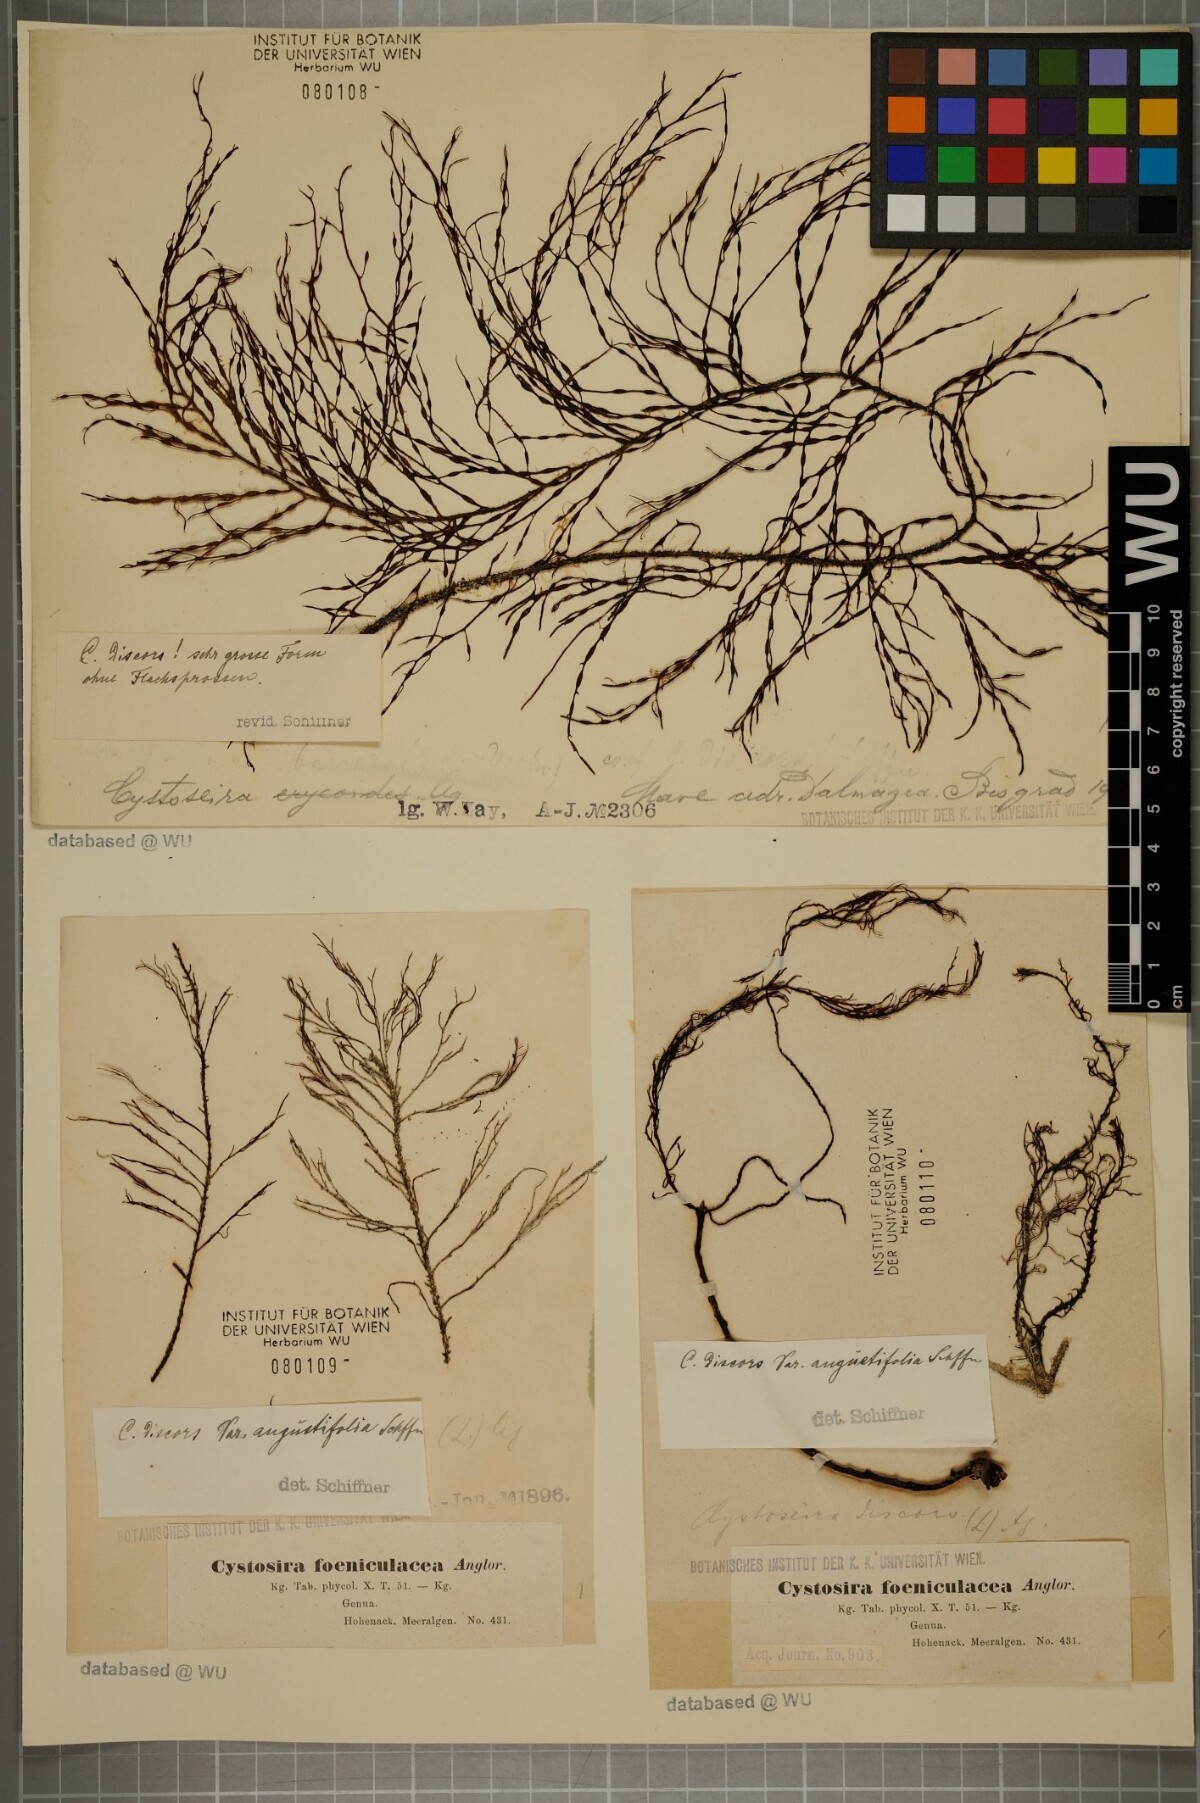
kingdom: Chromista
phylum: Ochrophyta
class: Phaeophyceae
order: Fucales
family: Sargassaceae
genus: Cystoseira
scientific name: Cystoseira foeniculacea
